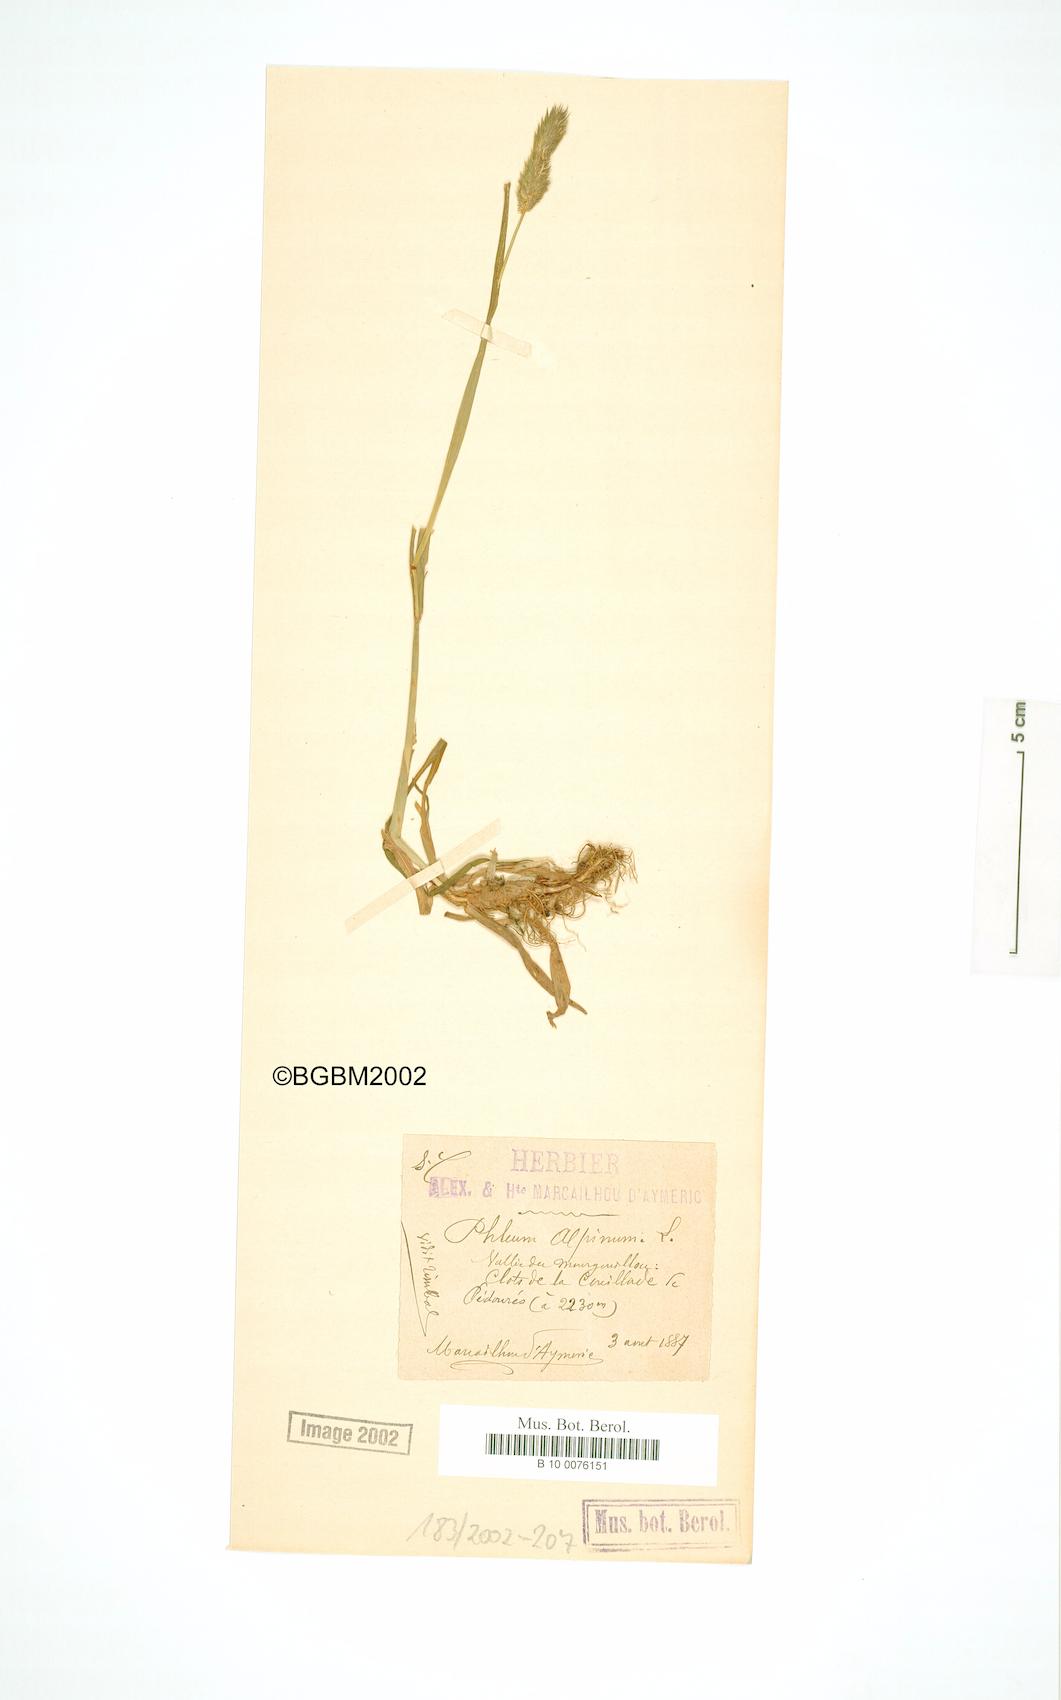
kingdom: Plantae
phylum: Tracheophyta
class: Liliopsida
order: Poales
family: Poaceae
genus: Phleum
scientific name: Phleum alpinum
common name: Alpine cat's-tail
